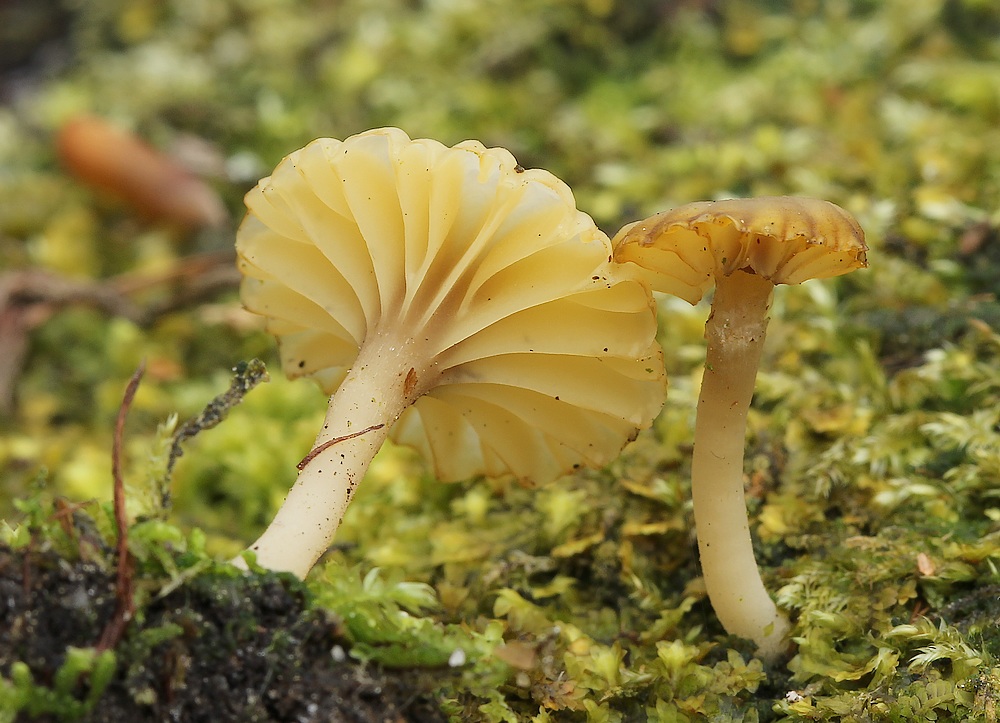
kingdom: Fungi
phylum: Basidiomycota
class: Agaricomycetes
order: Agaricales
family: Hygrophoraceae
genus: Lichenomphalia
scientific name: Lichenomphalia umbellifera
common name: tørve-lavhat
